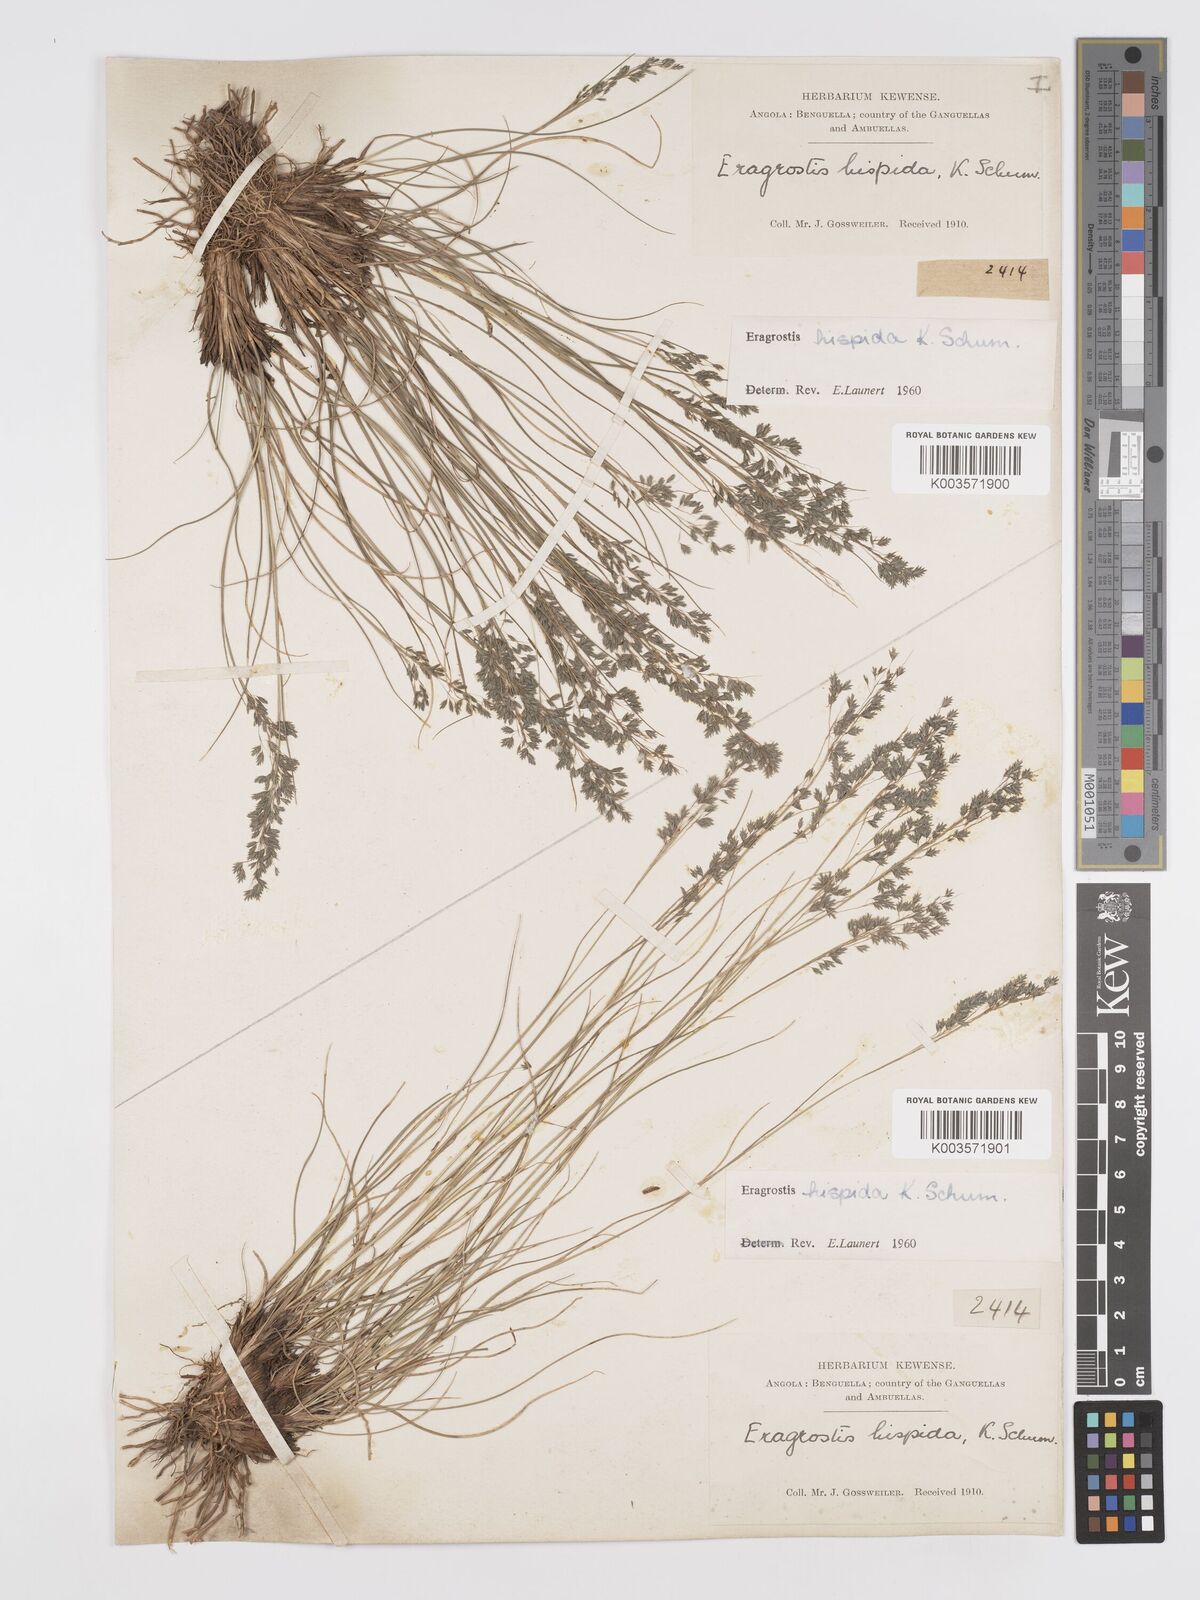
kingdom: Plantae
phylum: Tracheophyta
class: Liliopsida
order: Poales
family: Poaceae
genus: Eragrostis
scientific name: Eragrostis hispida
